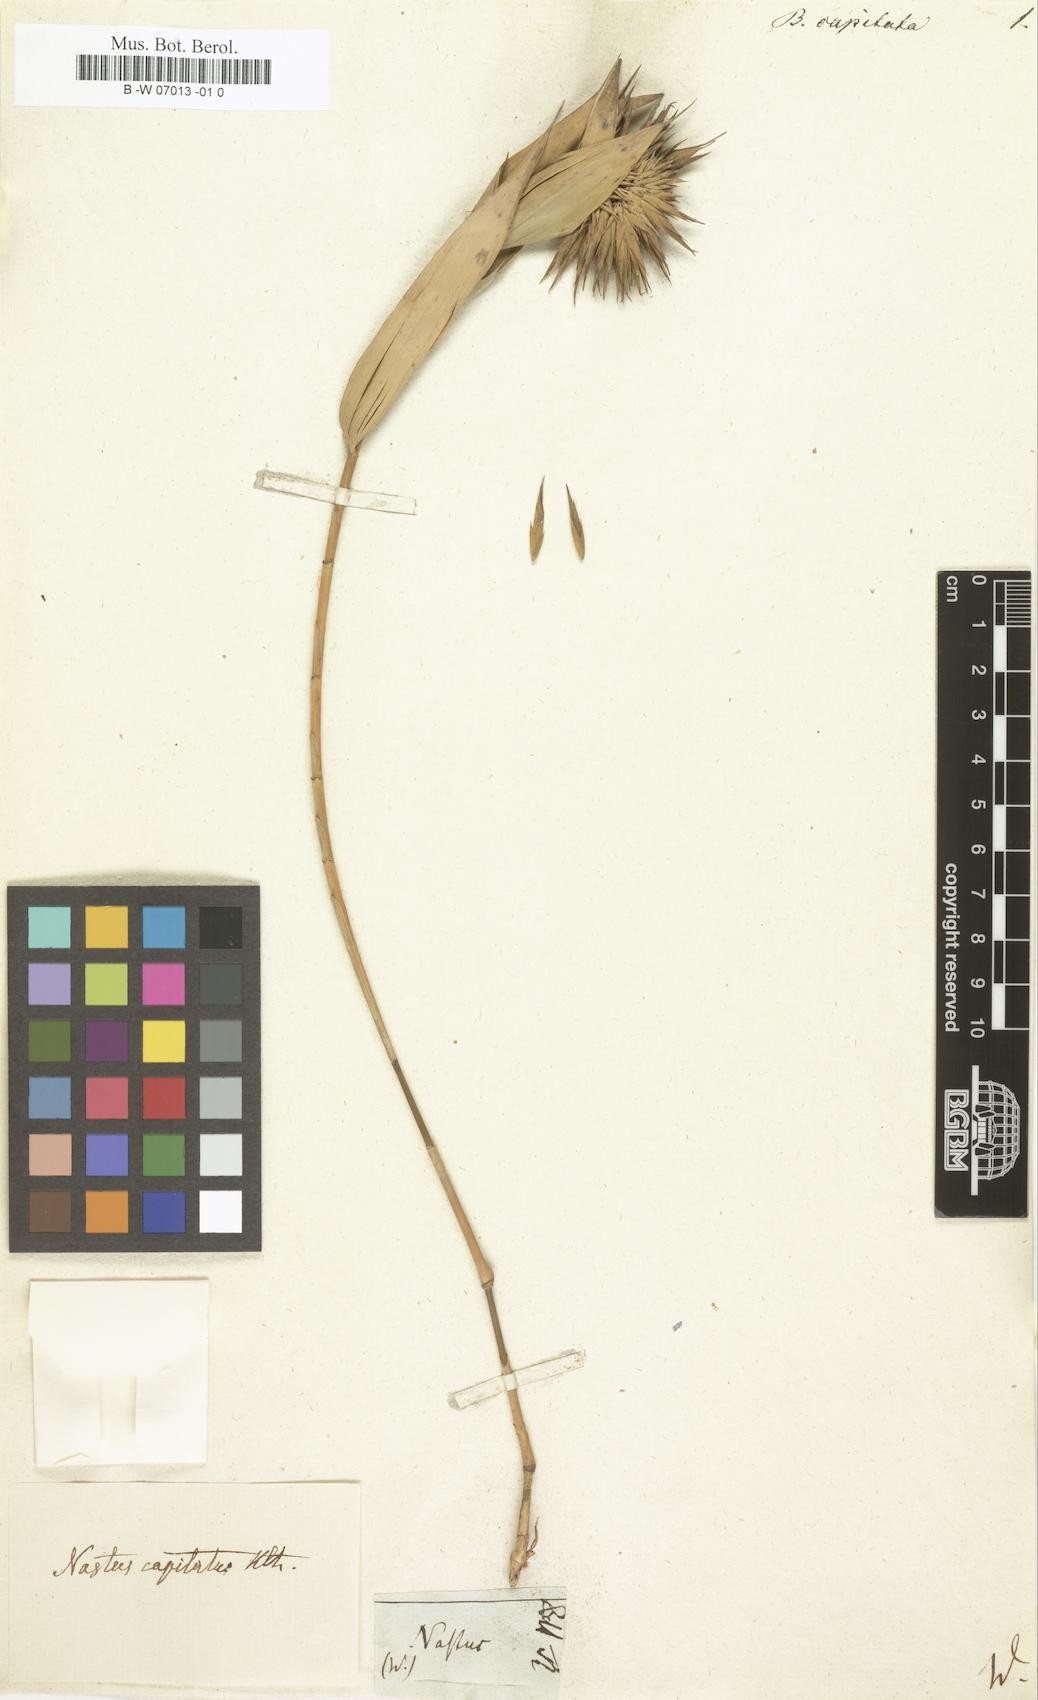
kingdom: Plantae
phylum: Tracheophyta
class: Liliopsida
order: Poales
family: Poaceae
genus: Eremocaulon
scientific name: Eremocaulon capitatum
